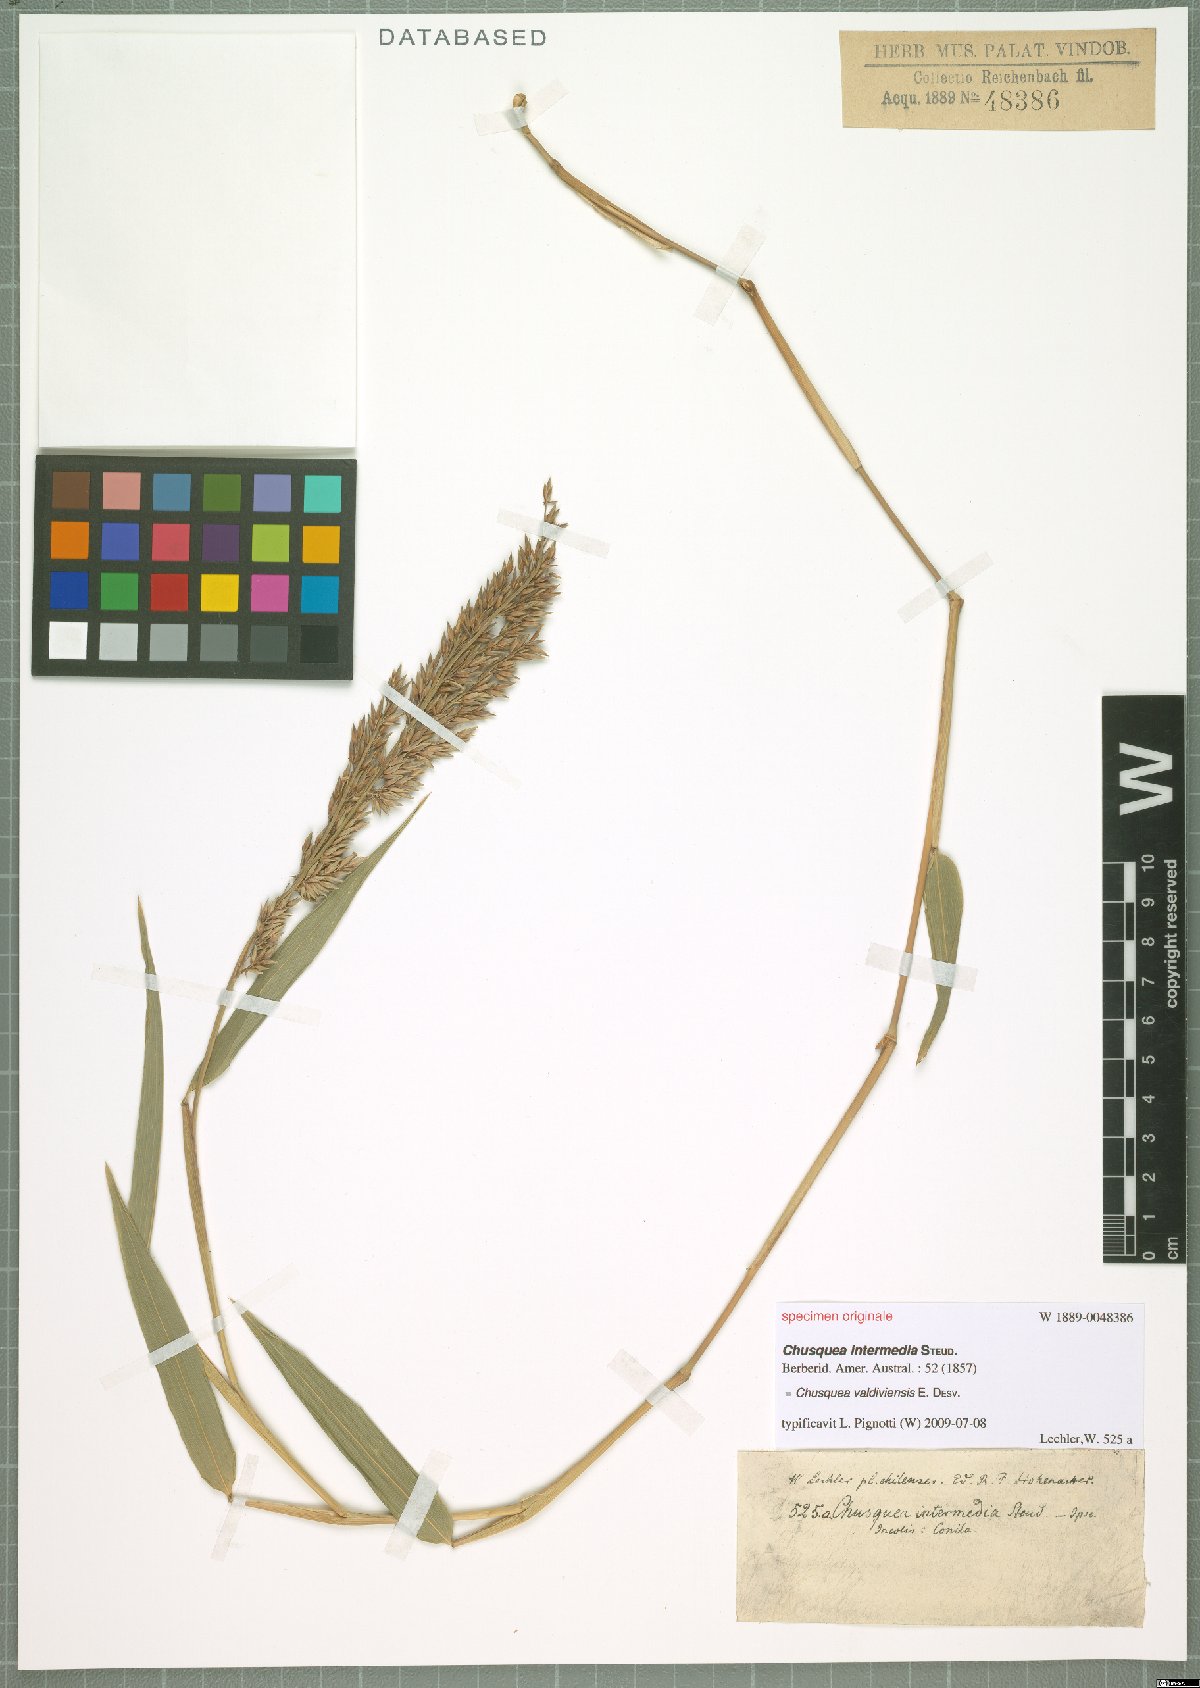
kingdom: Plantae
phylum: Tracheophyta
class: Liliopsida
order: Poales
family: Poaceae
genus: Chusquea
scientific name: Chusquea valdiviensis
